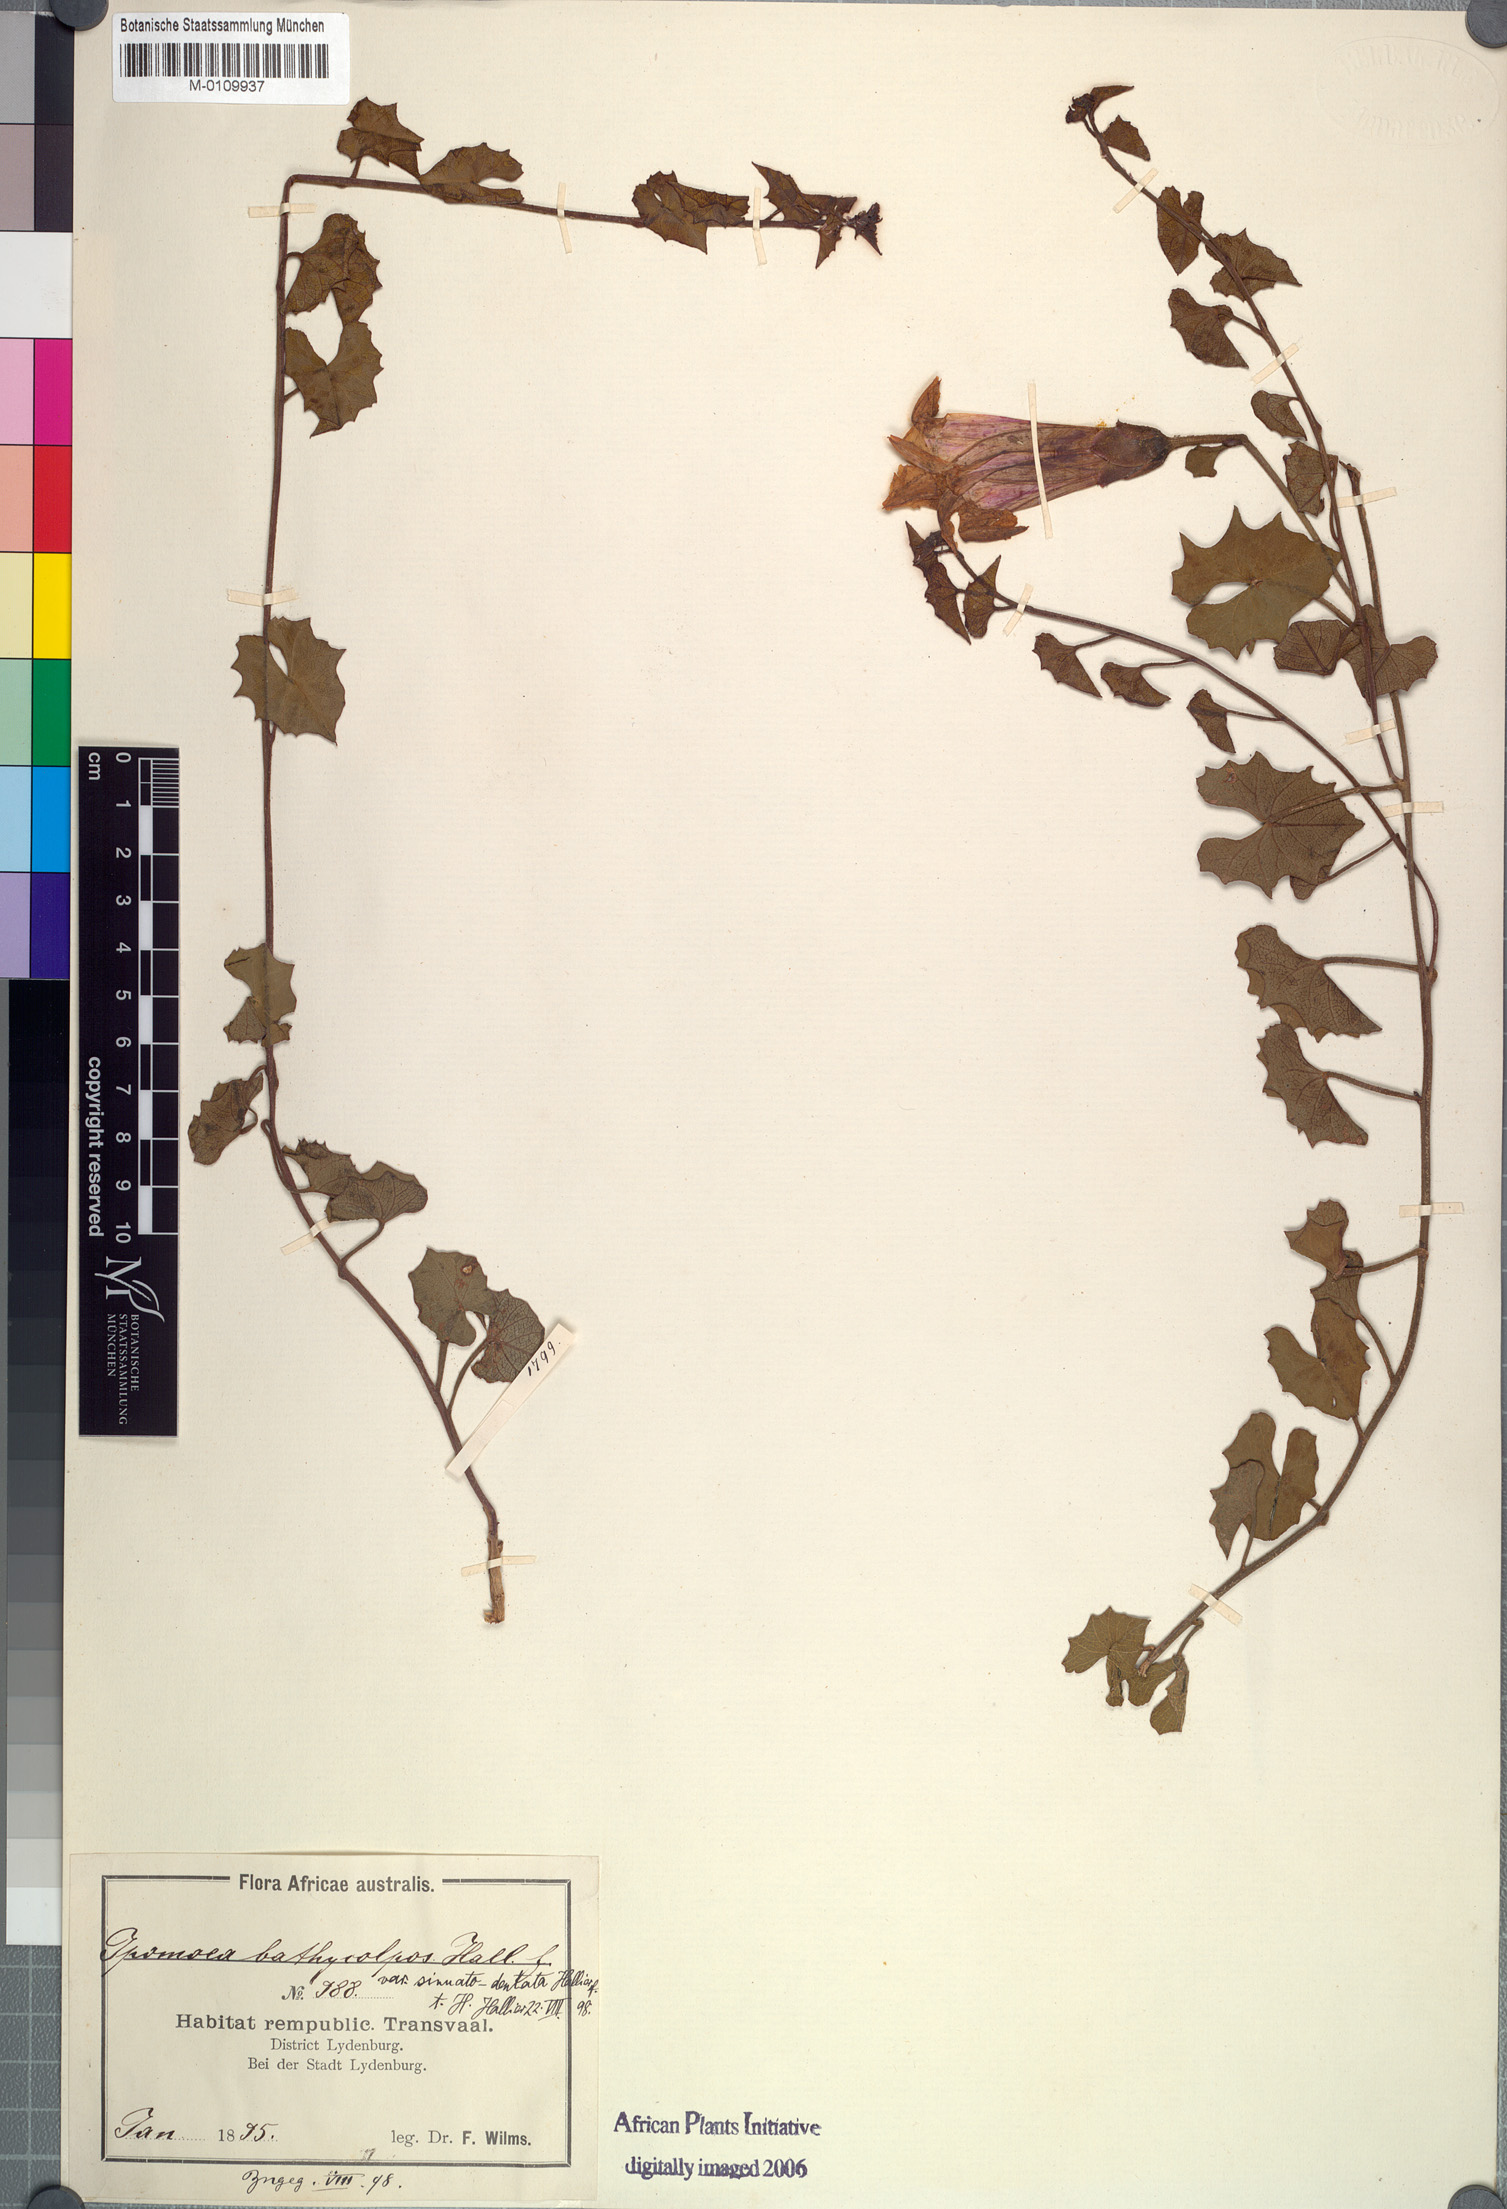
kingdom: Plantae
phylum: Tracheophyta
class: Magnoliopsida
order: Solanales
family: Convolvulaceae
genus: Ipomoea
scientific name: Ipomoea bathycolpos
